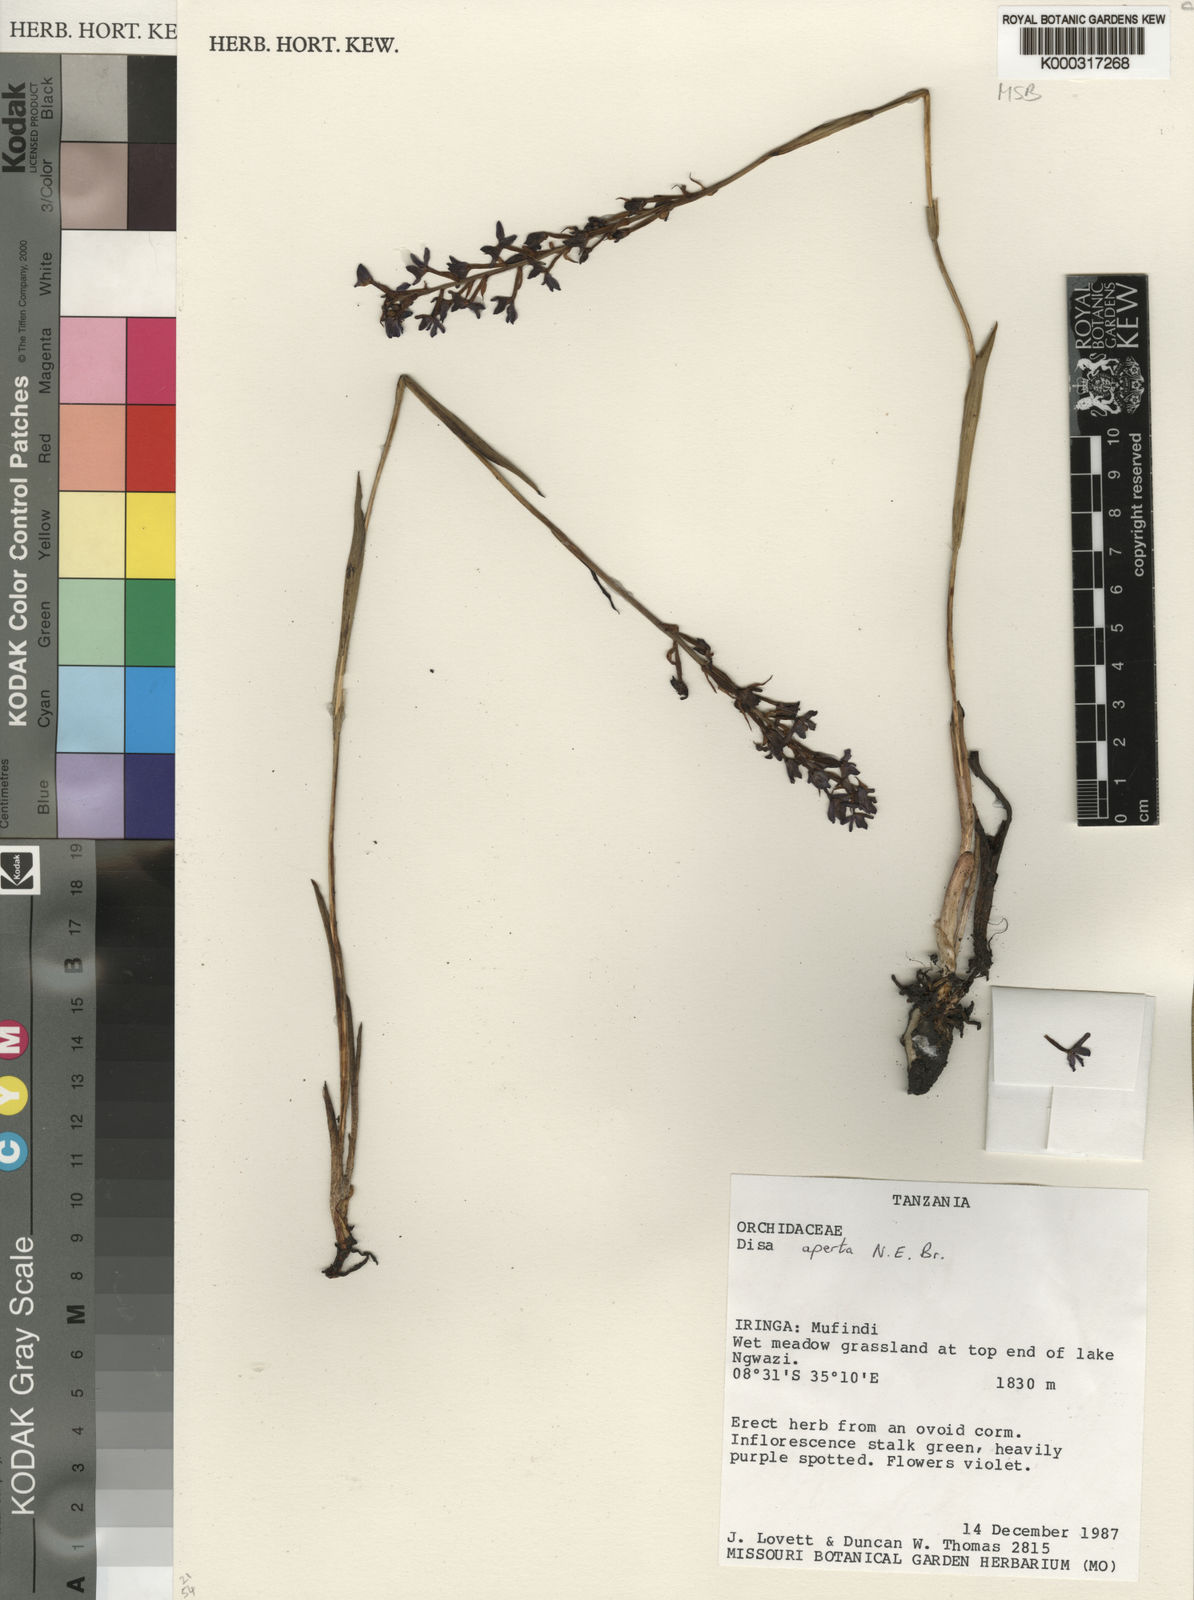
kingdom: Plantae
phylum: Tracheophyta
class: Liliopsida
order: Asparagales
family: Orchidaceae
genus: Disa
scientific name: Disa aperta
